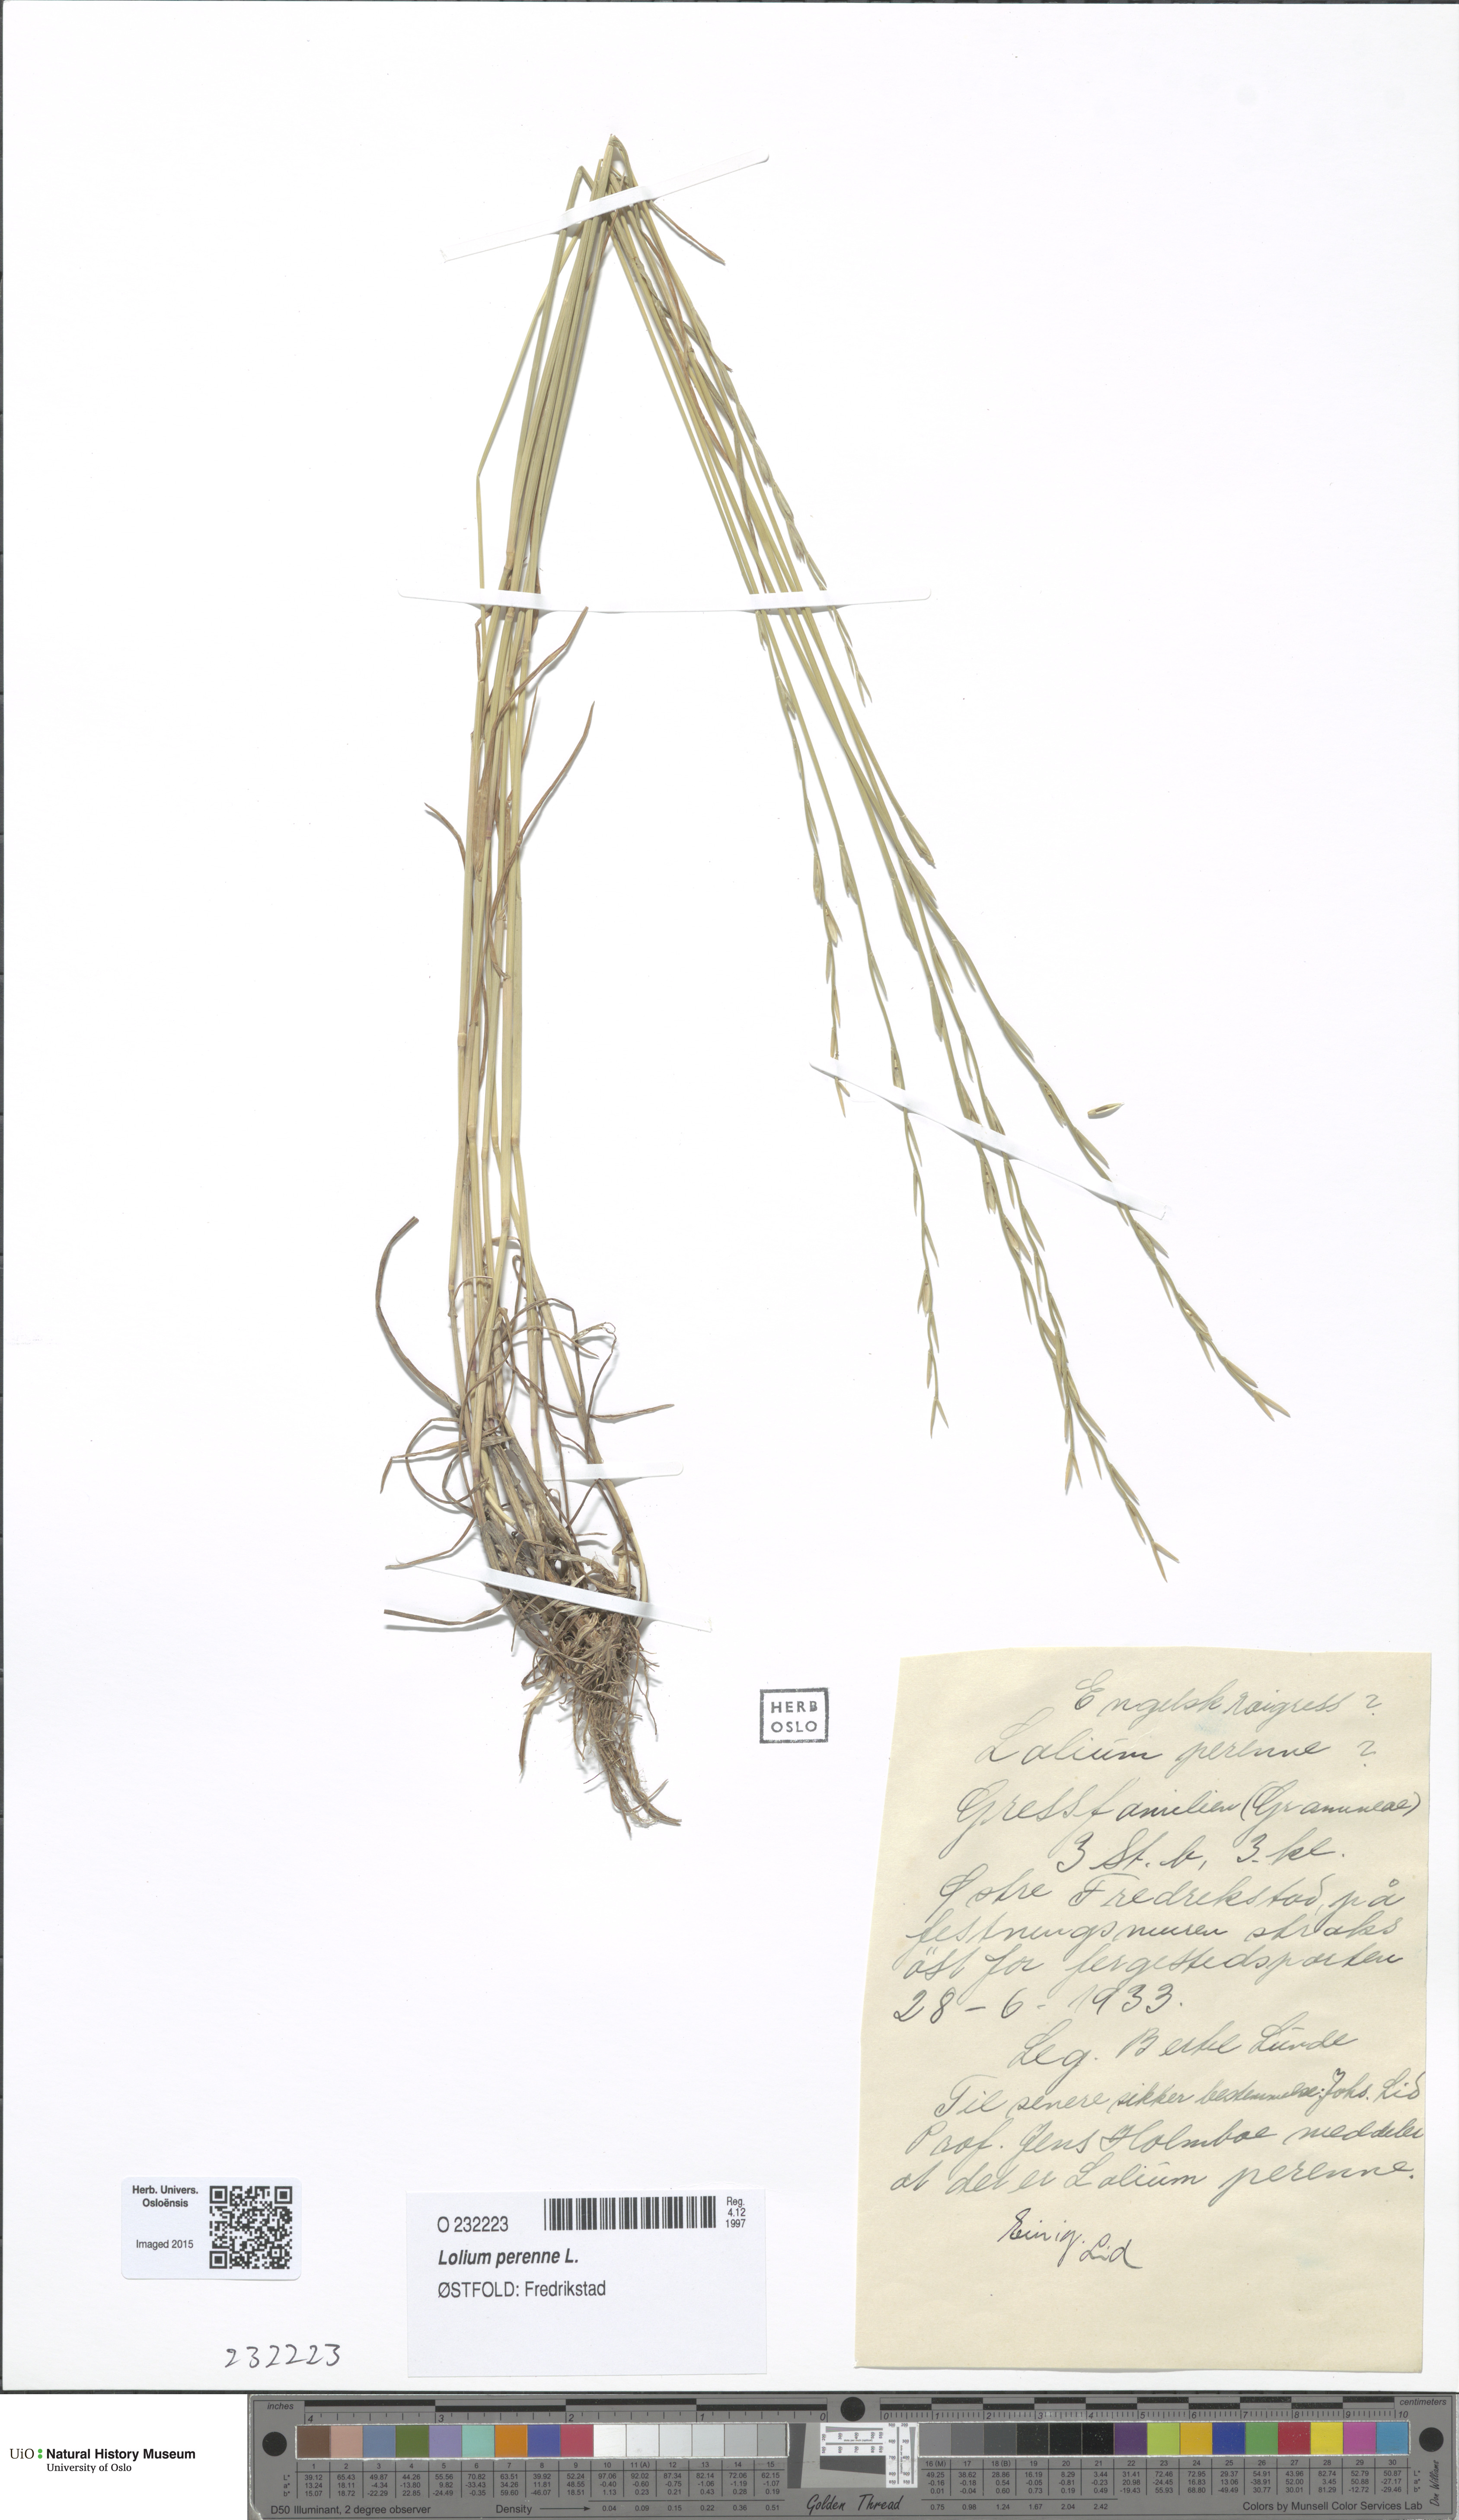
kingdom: Plantae
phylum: Tracheophyta
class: Liliopsida
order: Poales
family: Poaceae
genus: Lolium
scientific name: Lolium perenne
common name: Perennial ryegrass
